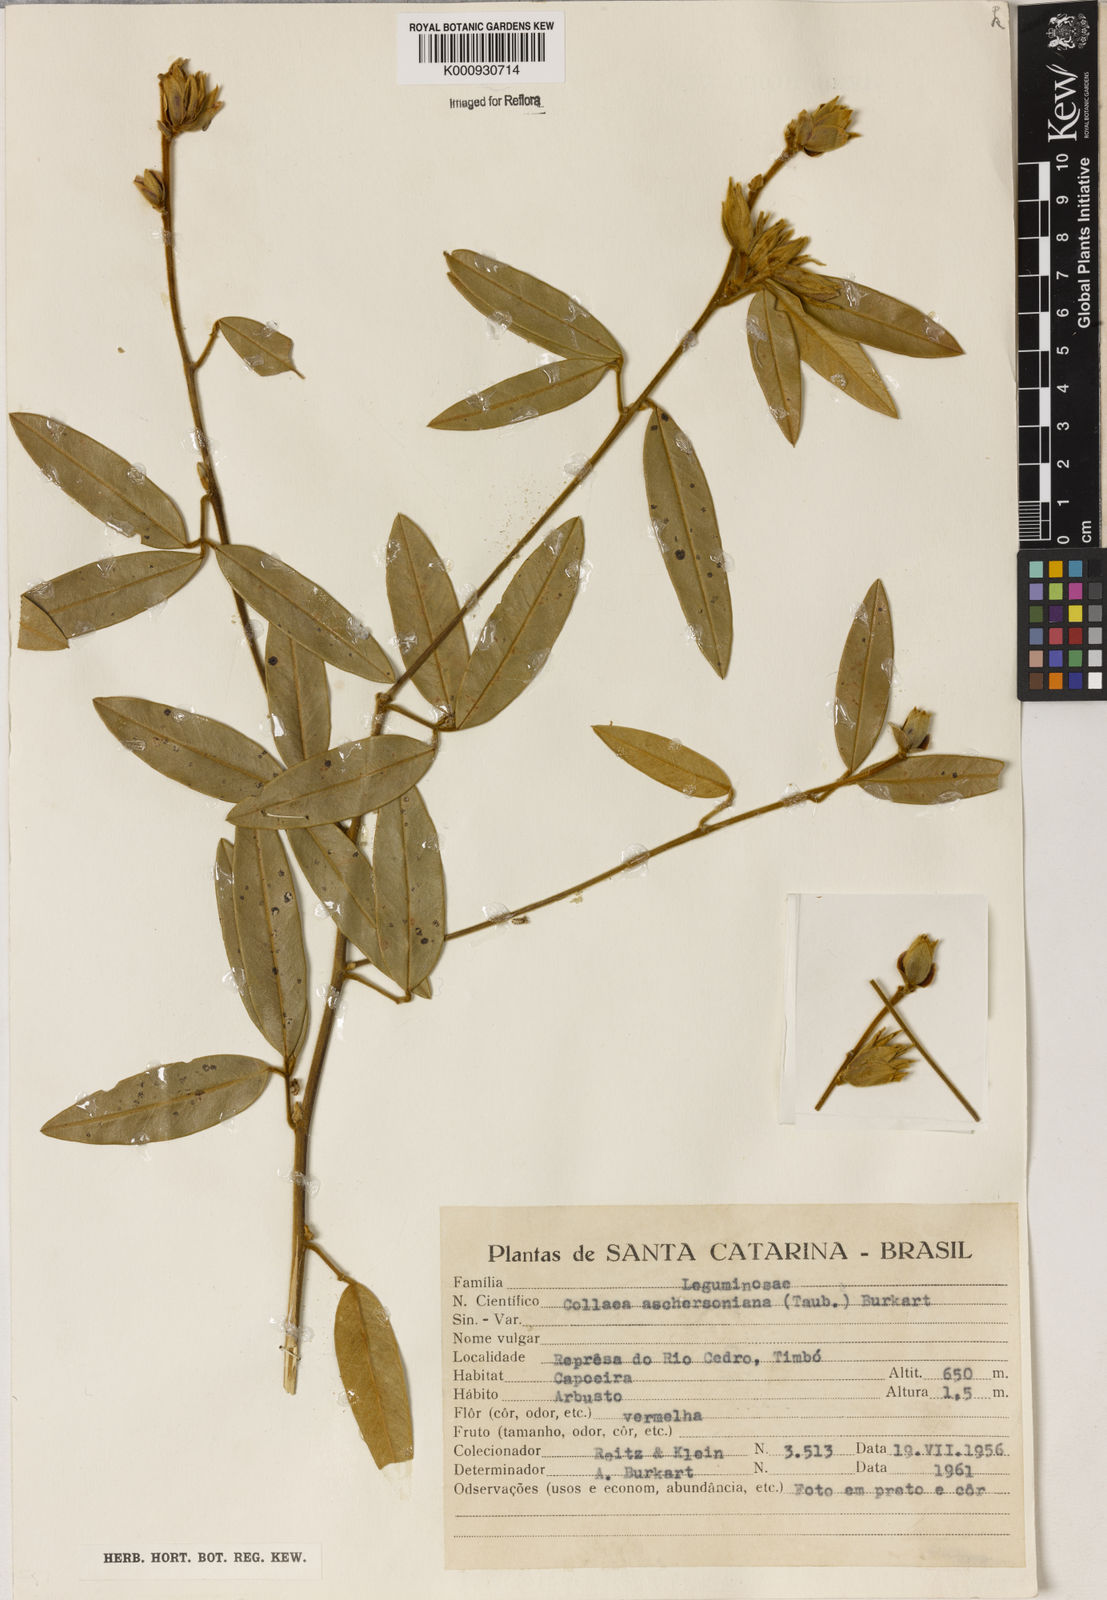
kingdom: Plantae
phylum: Tracheophyta
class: Magnoliopsida
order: Lamiales
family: Lamiaceae
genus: Coleus
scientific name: Coleus barbatus
